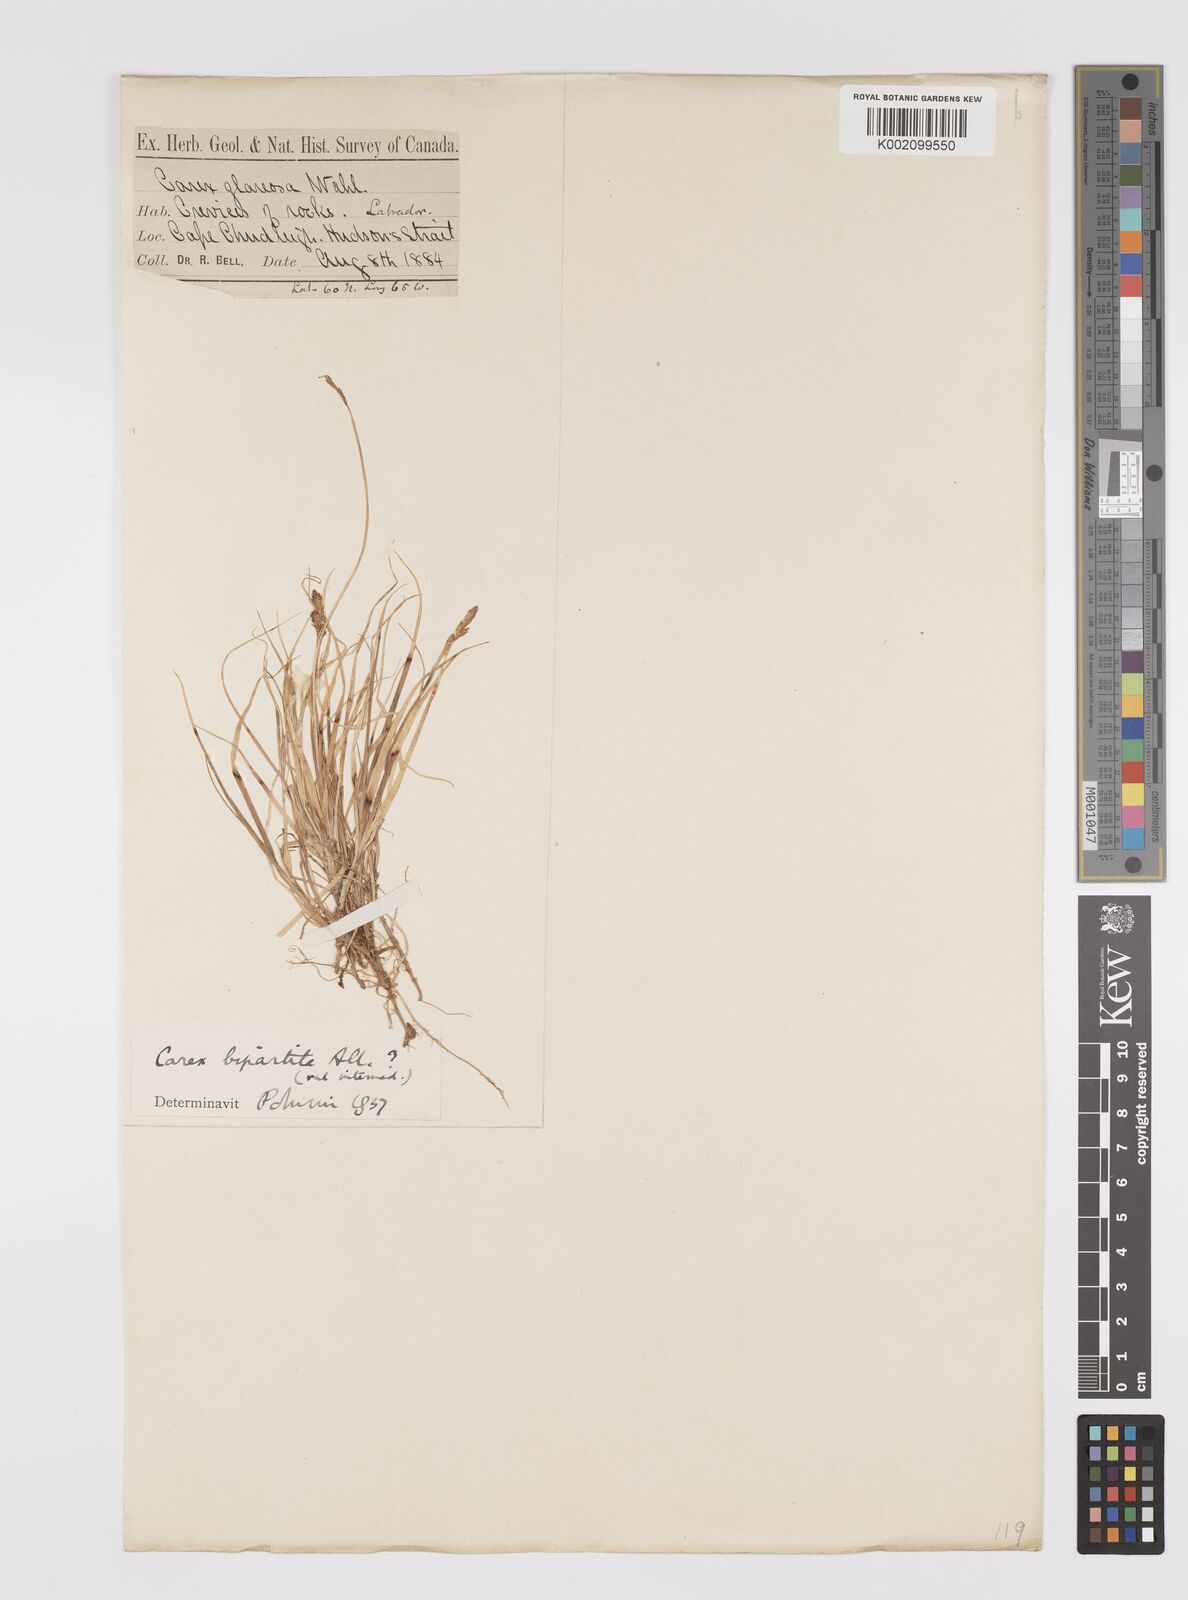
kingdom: Plantae
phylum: Tracheophyta
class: Liliopsida
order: Poales
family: Cyperaceae
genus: Carex
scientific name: Carex lachenalii
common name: Hare's-foot sedge
